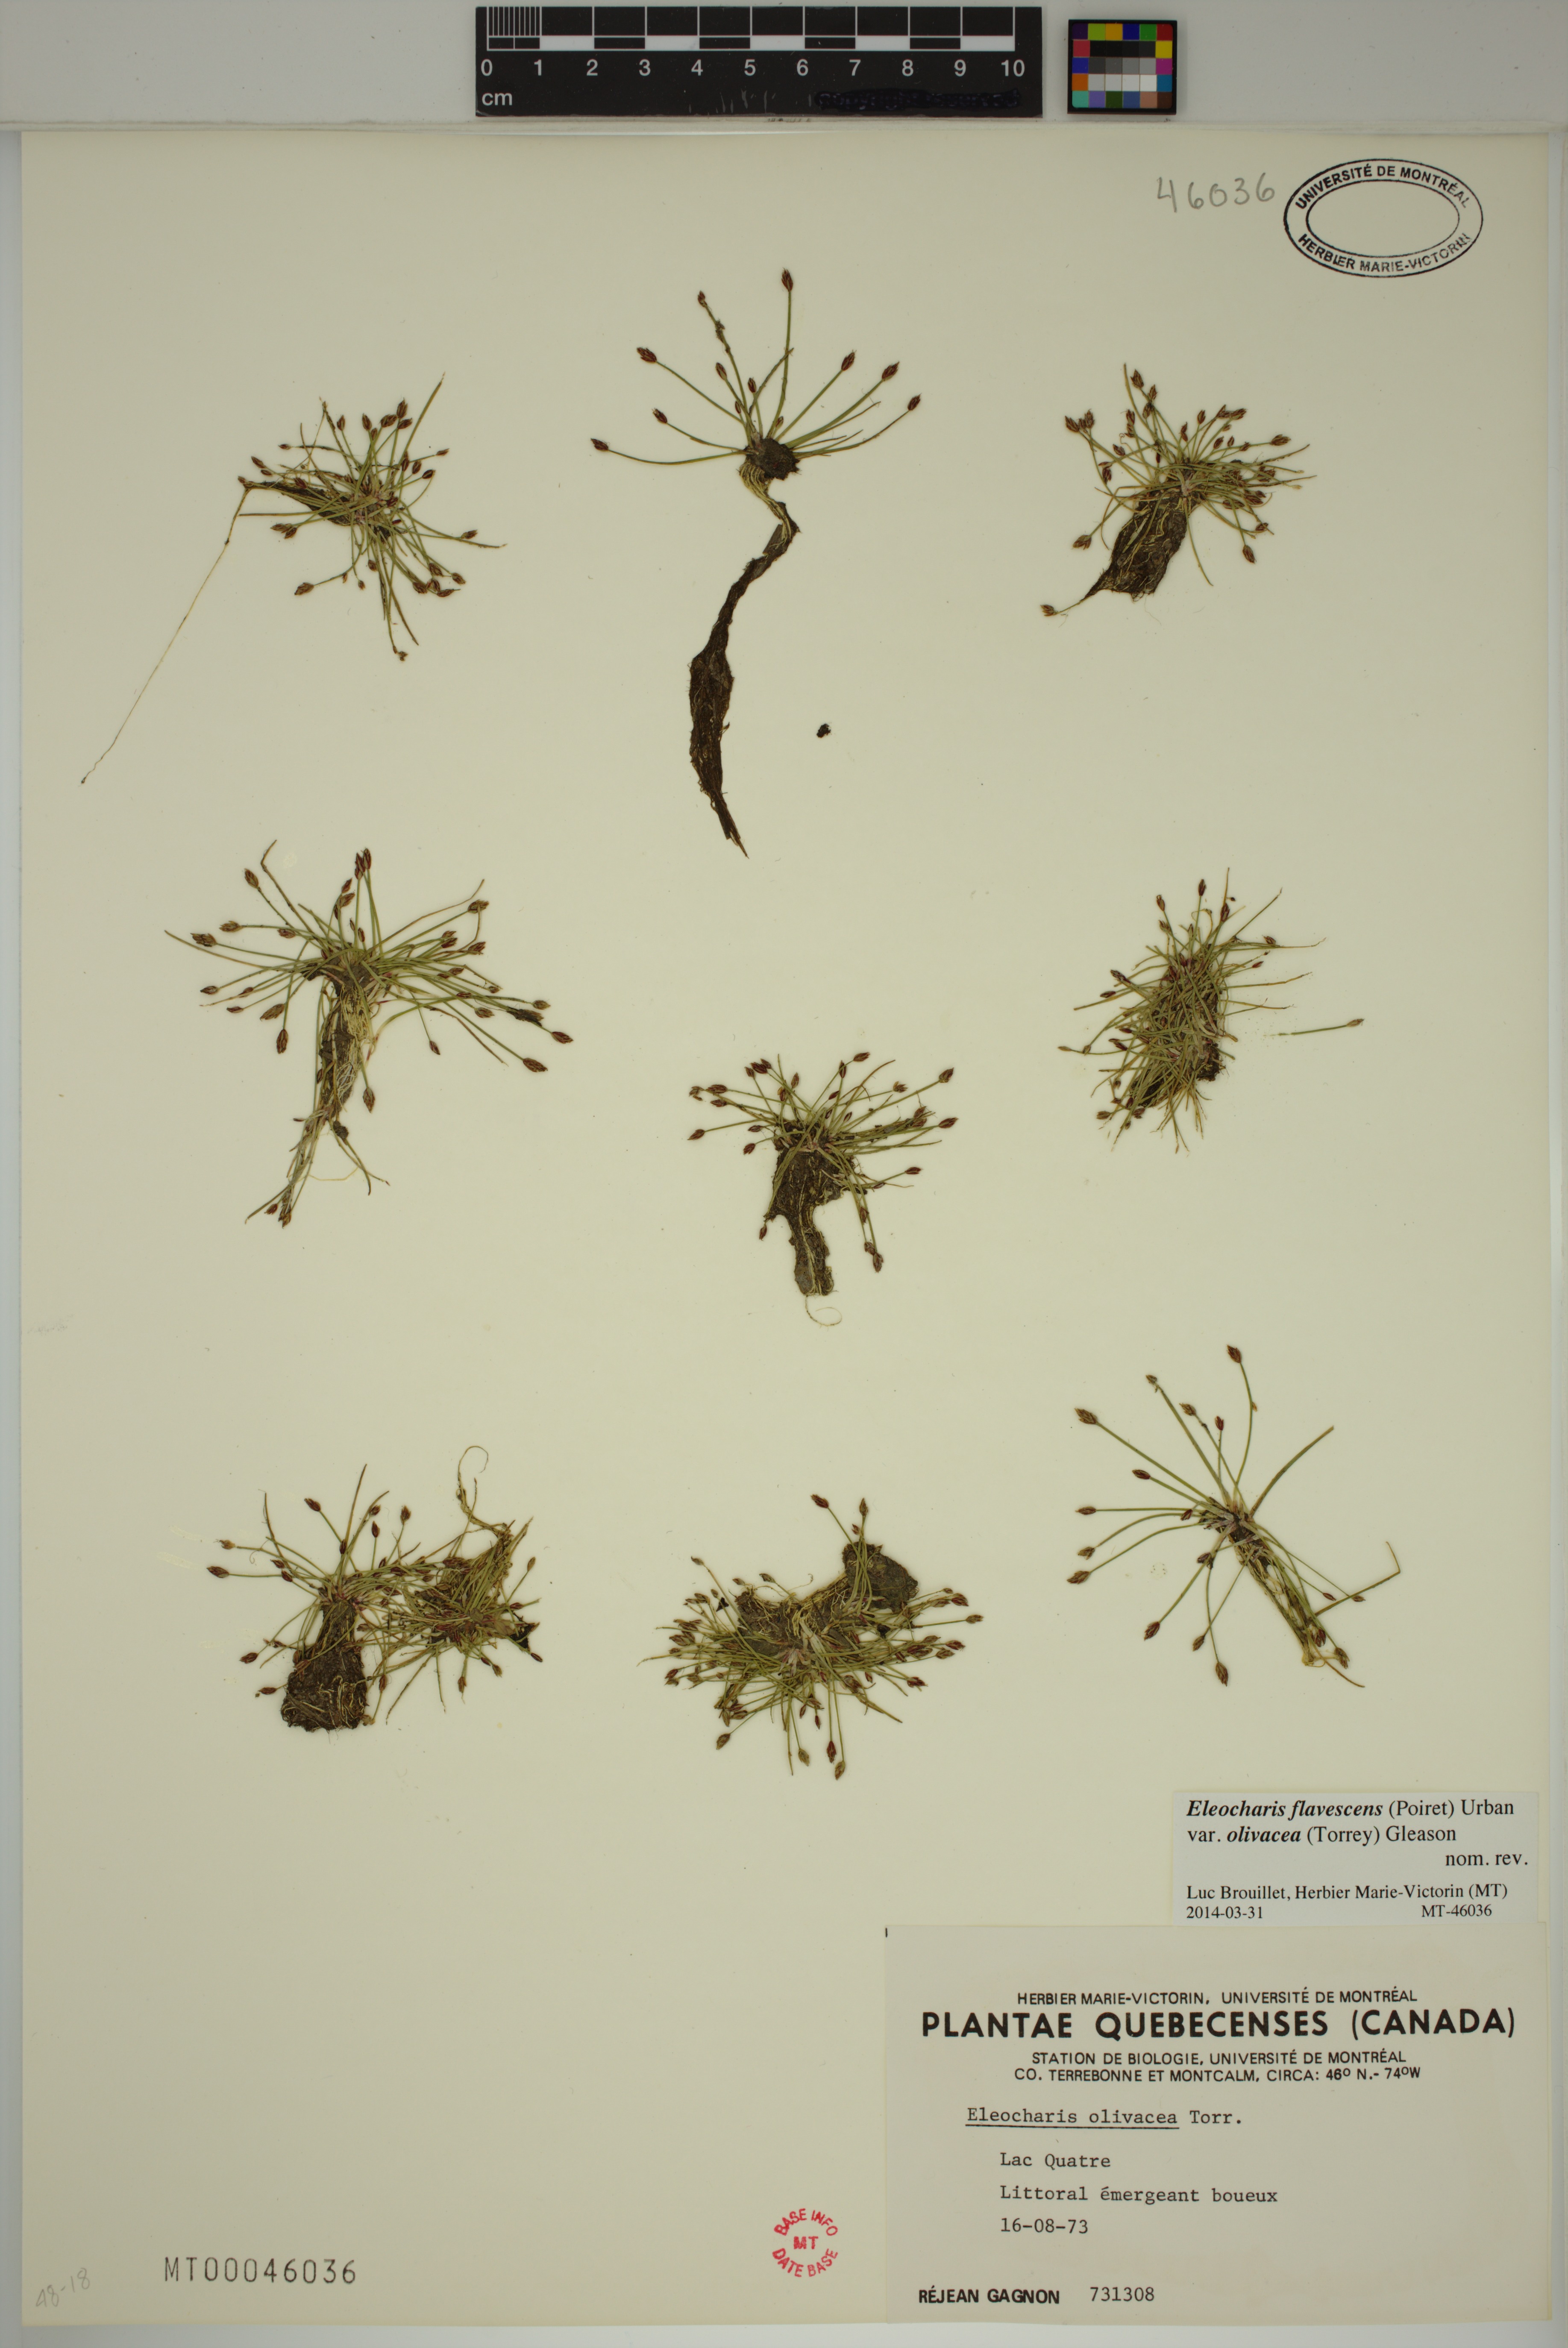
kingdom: Plantae
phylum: Tracheophyta
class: Liliopsida
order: Poales
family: Cyperaceae
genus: Eleocharis
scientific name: Eleocharis flavescens
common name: Yellow spikerush
